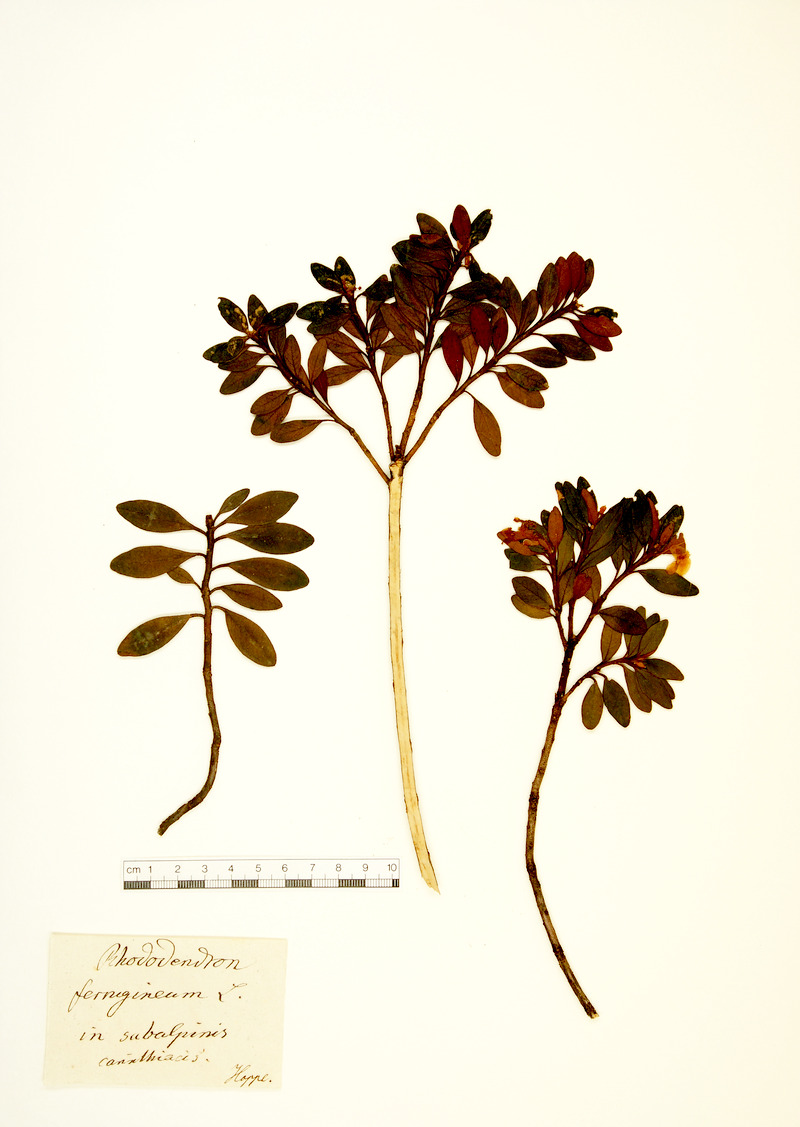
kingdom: Plantae
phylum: Tracheophyta
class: Magnoliopsida
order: Ericales
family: Ericaceae
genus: Rhododendron
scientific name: Rhododendron ferrugineum
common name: Alpenrose
